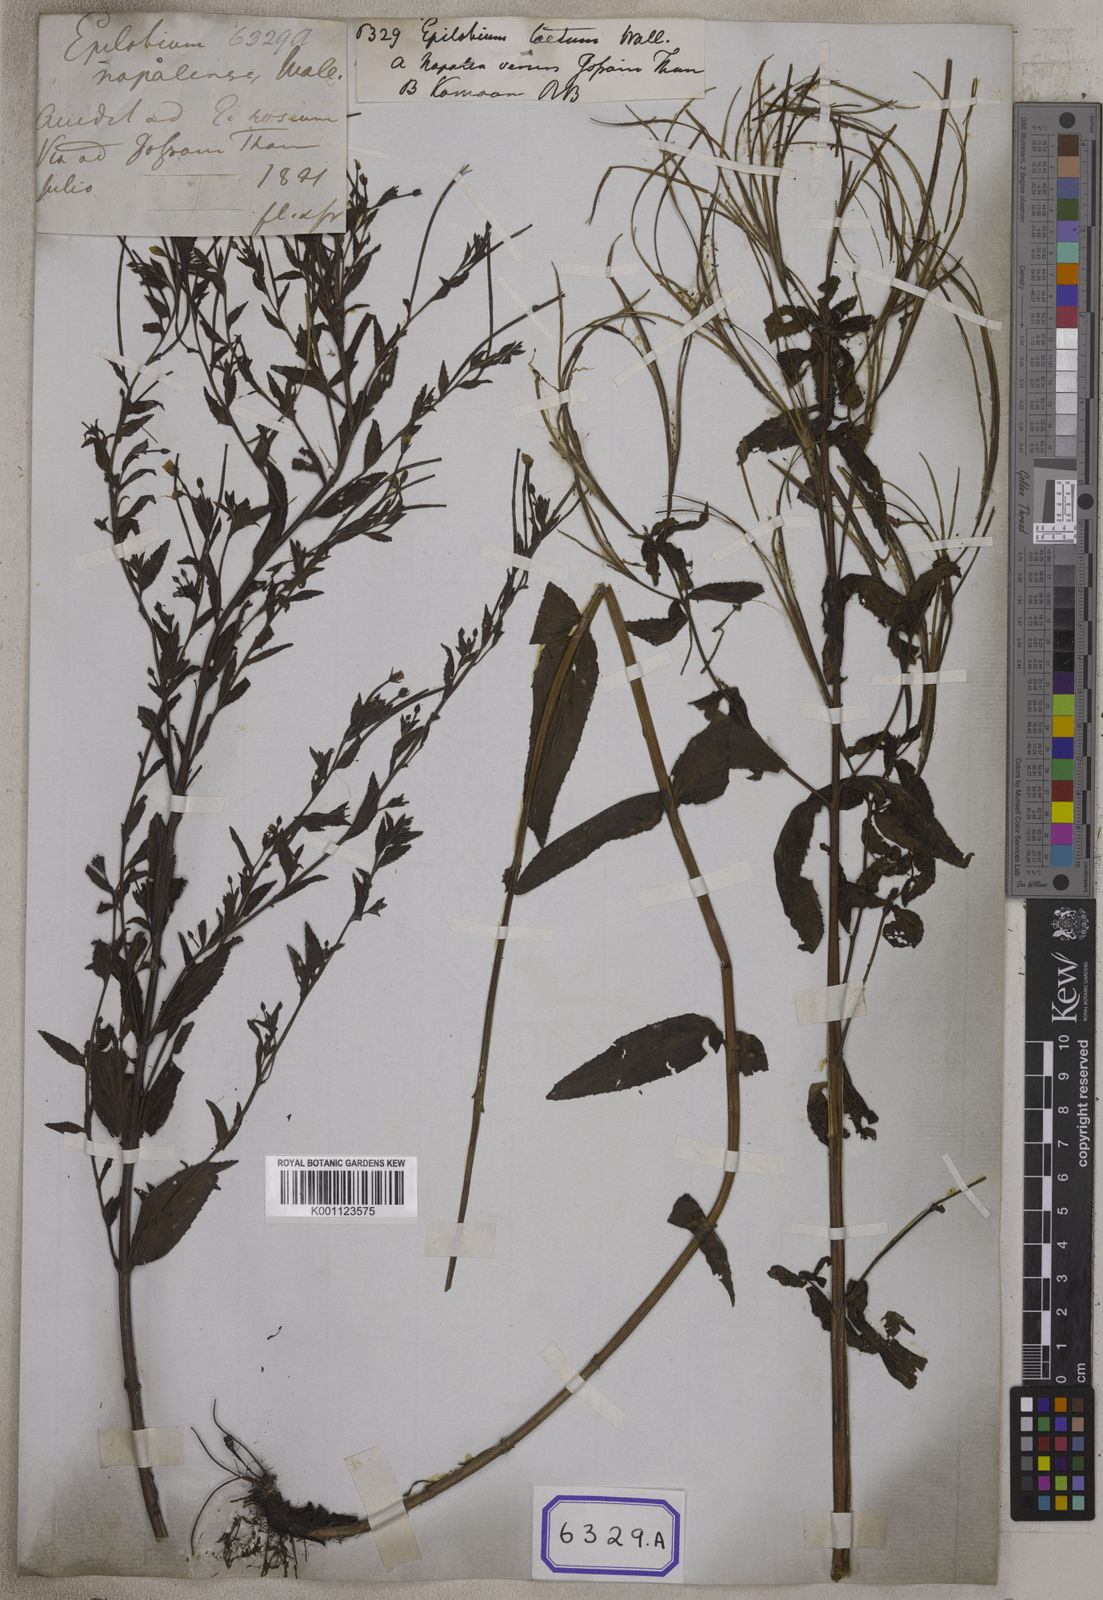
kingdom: Plantae
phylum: Tracheophyta
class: Magnoliopsida
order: Myrtales
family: Onagraceae
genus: Epilobium
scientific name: Epilobium
